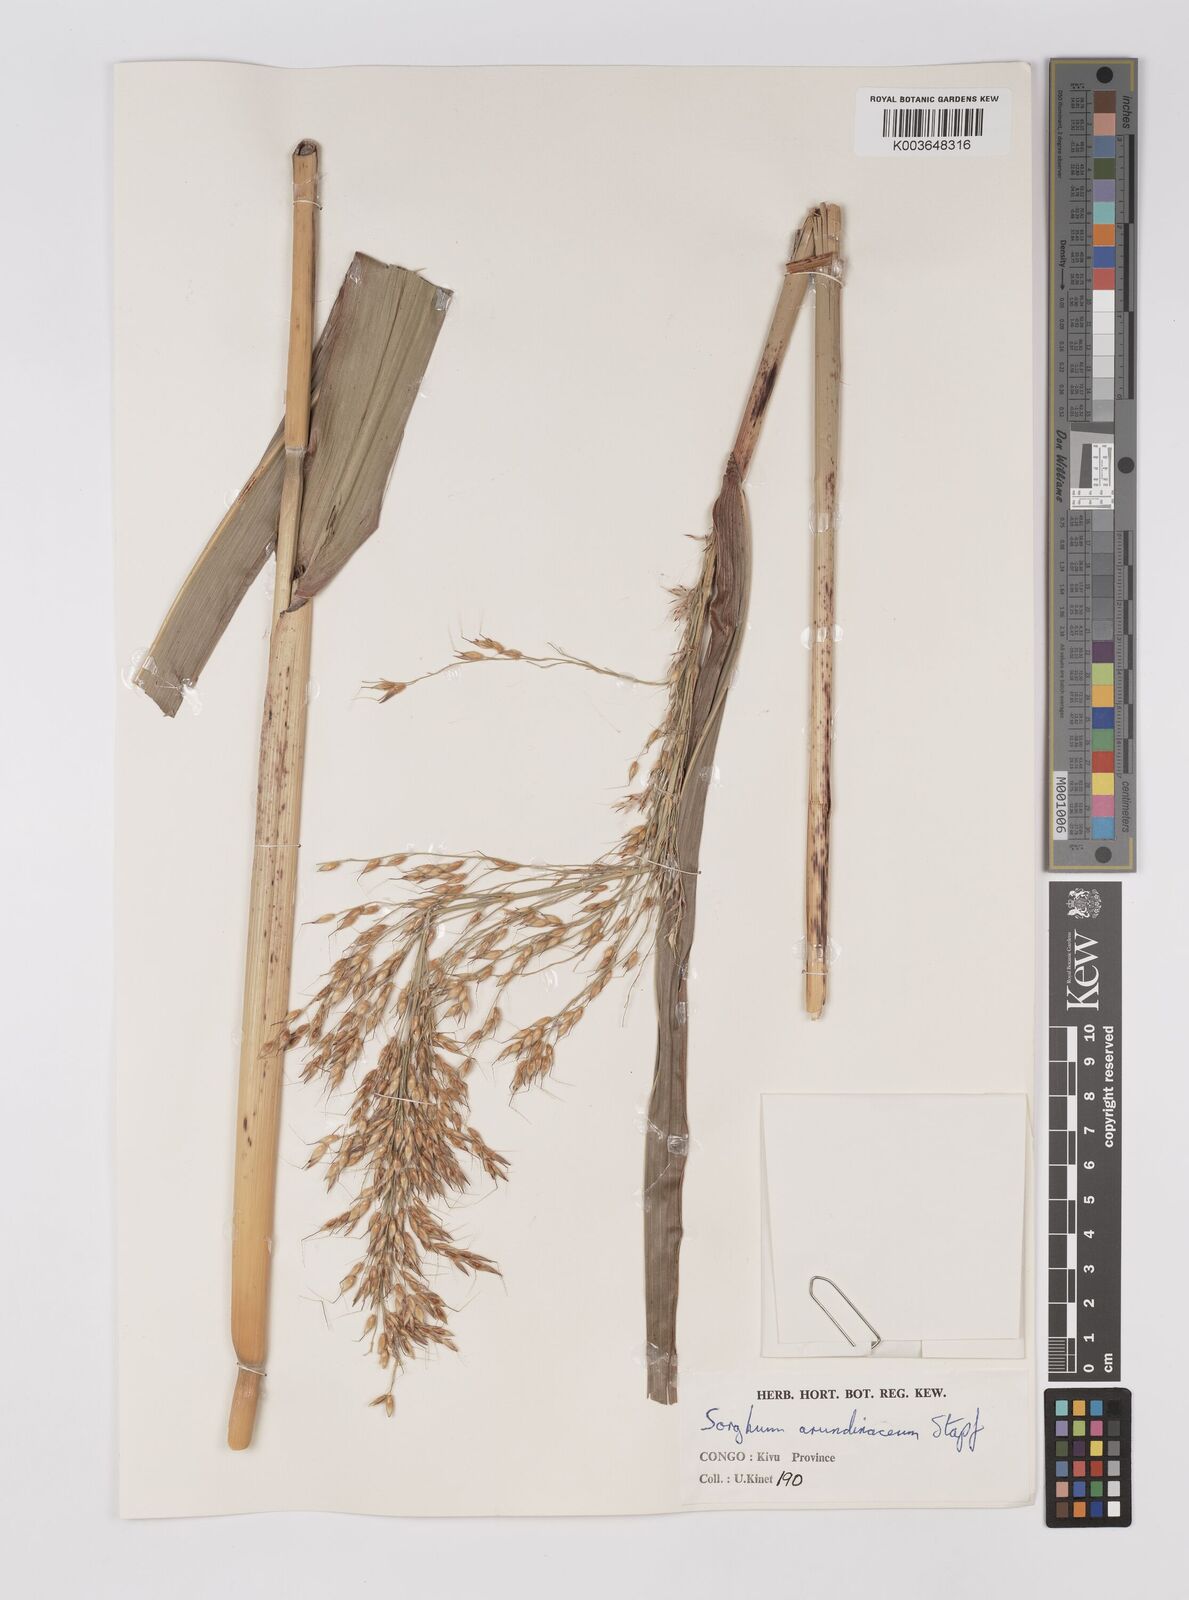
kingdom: Plantae
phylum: Tracheophyta
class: Liliopsida
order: Poales
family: Poaceae
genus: Sorghum
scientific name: Sorghum arundinaceum
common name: Sorghum
